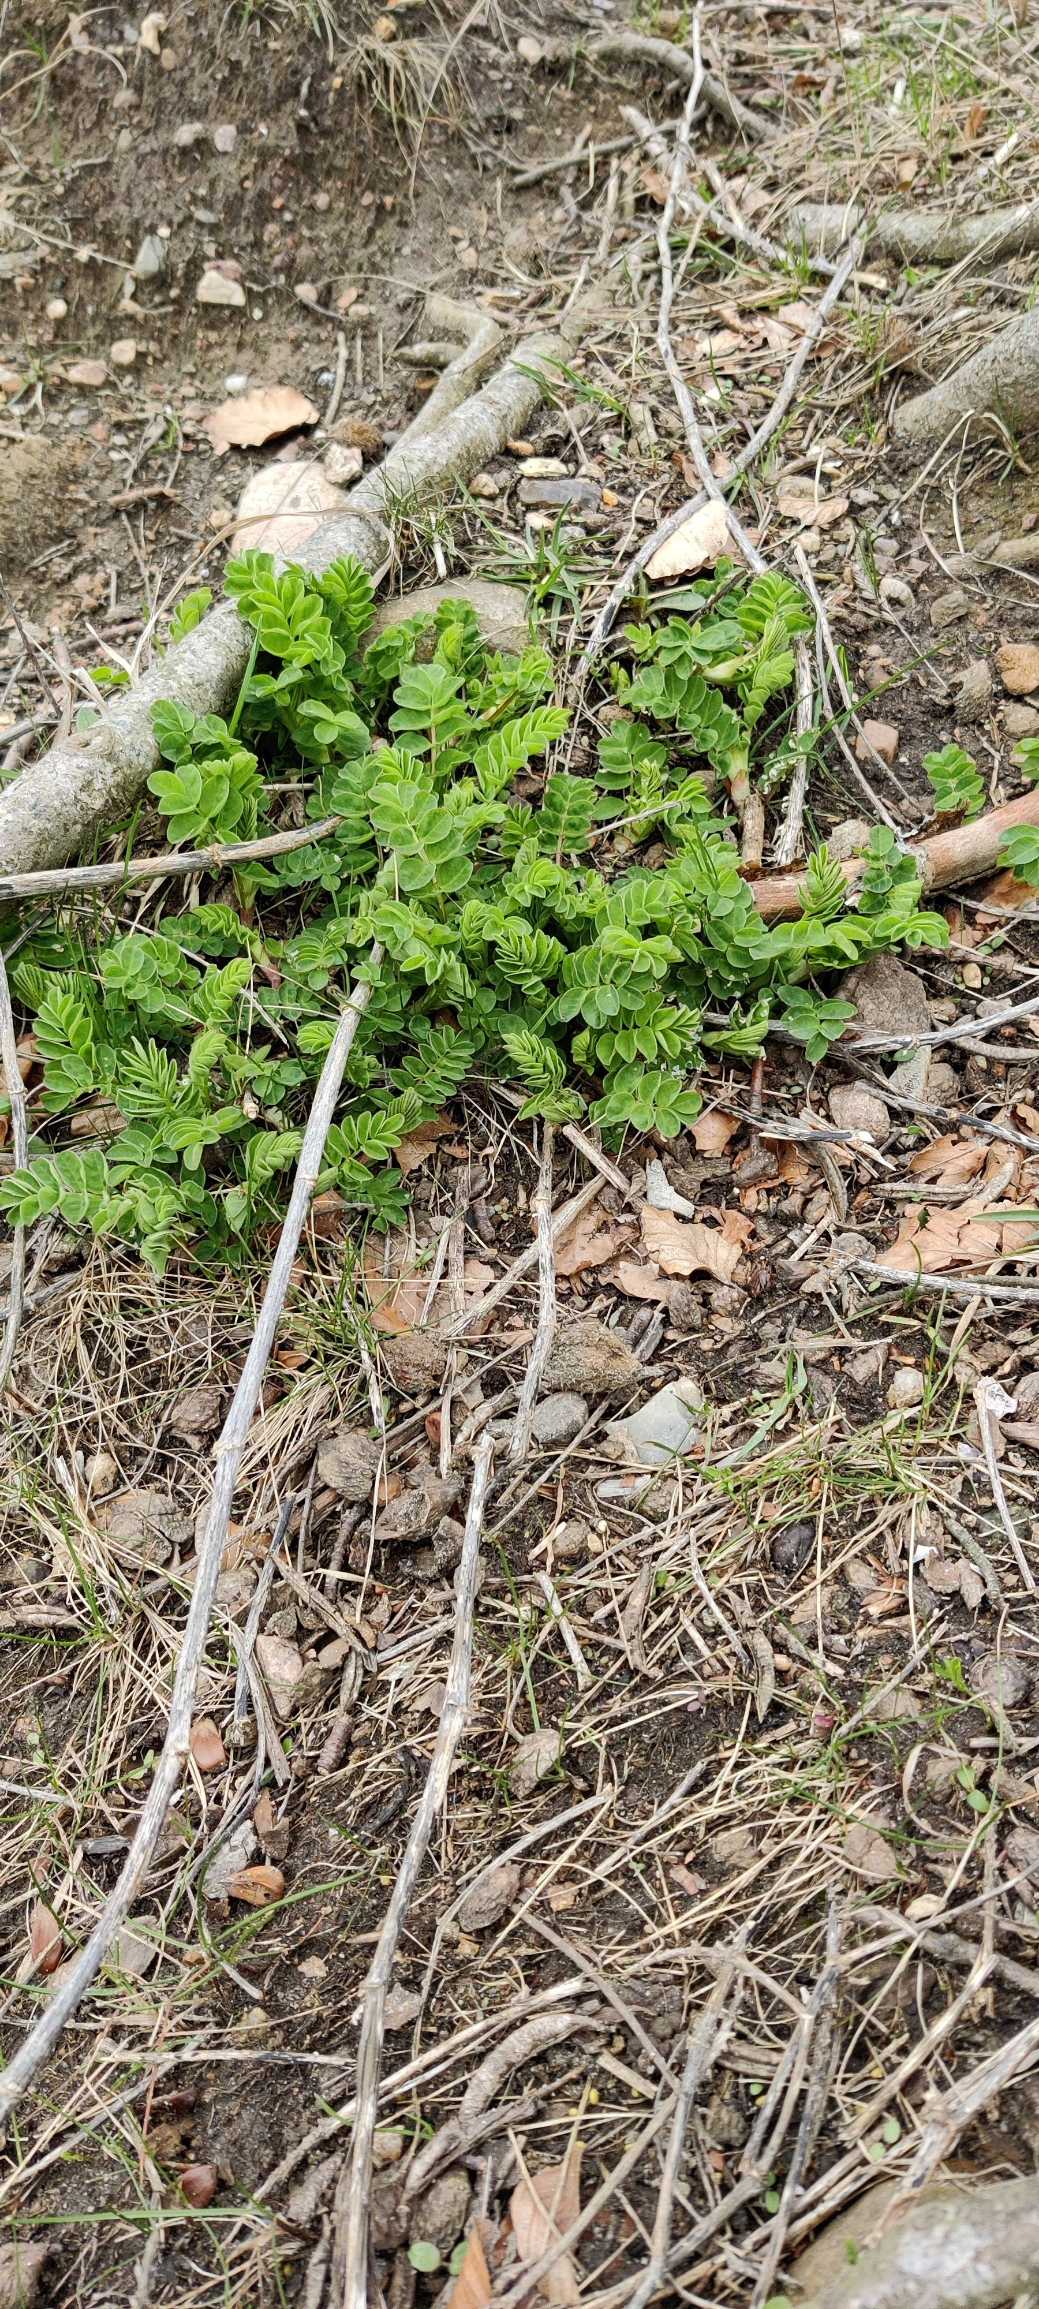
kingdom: Plantae
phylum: Tracheophyta
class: Magnoliopsida
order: Fabales
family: Fabaceae
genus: Astragalus
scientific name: Astragalus glycyphyllos
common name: Sød astragel
